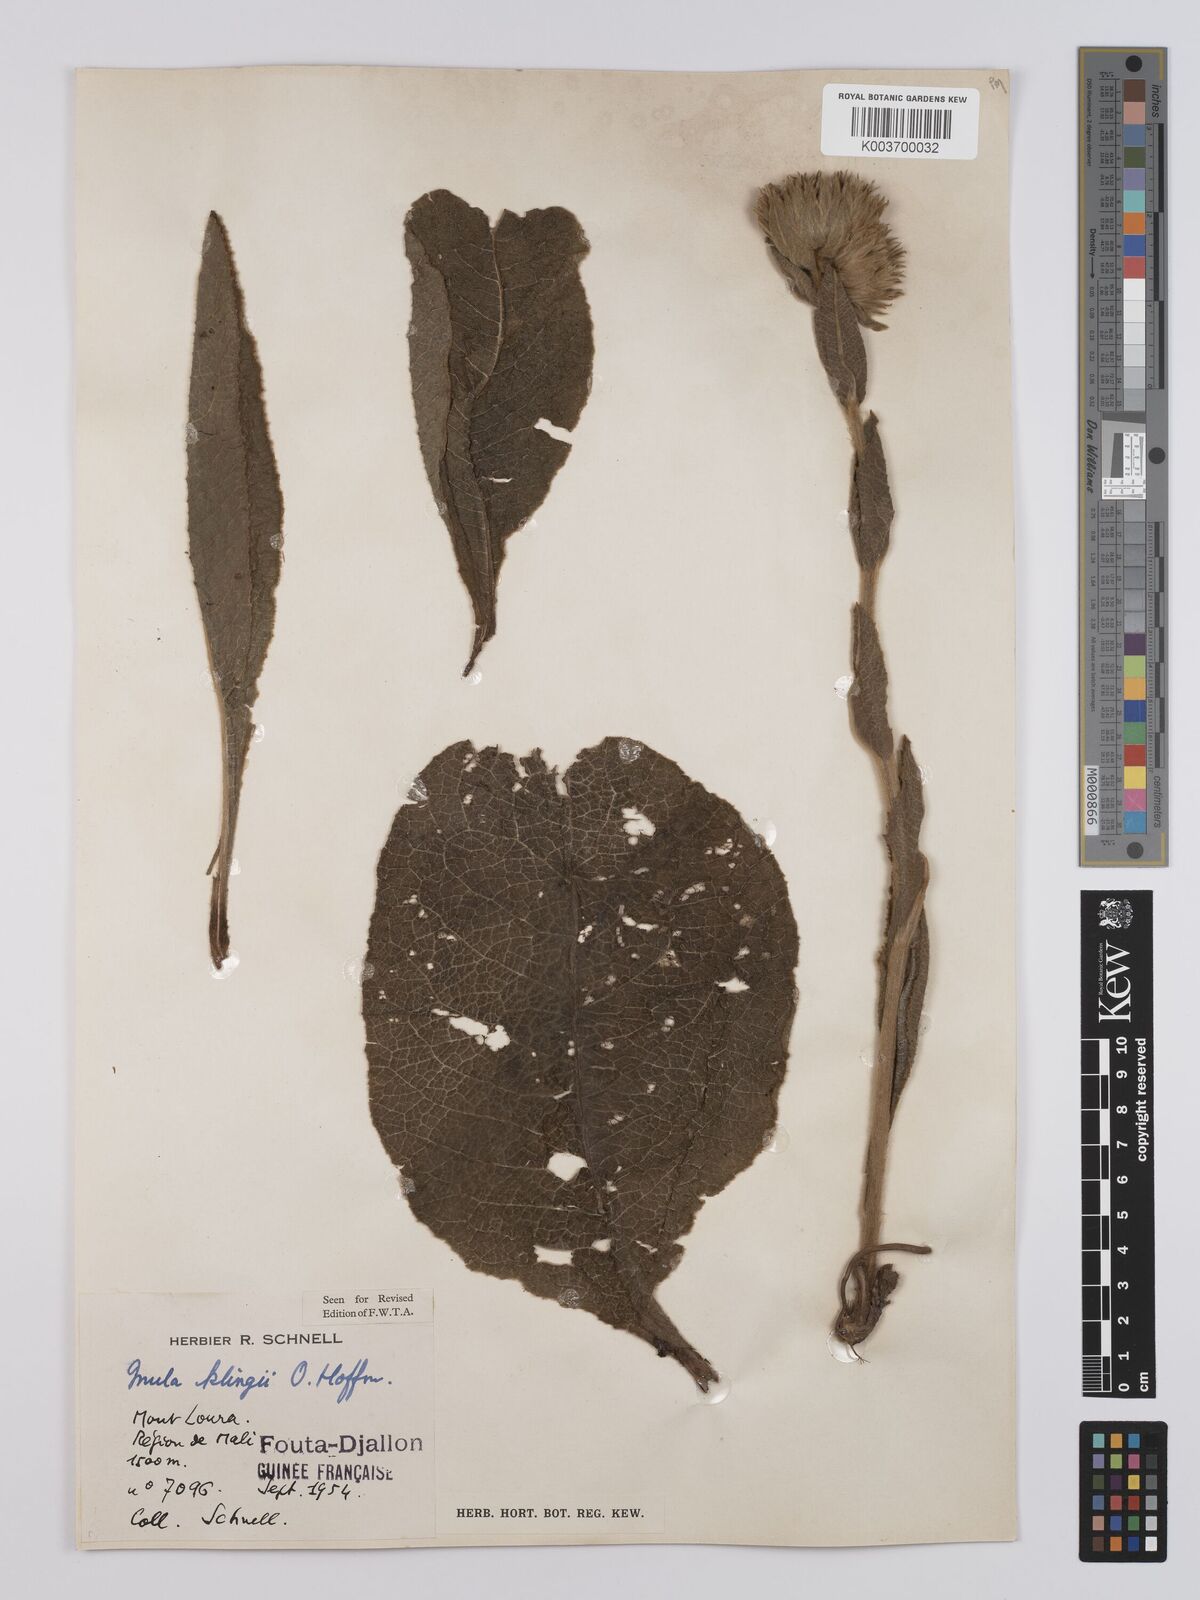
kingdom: Plantae
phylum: Tracheophyta
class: Magnoliopsida
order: Asterales
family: Asteraceae
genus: Inula
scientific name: Inula klingii
